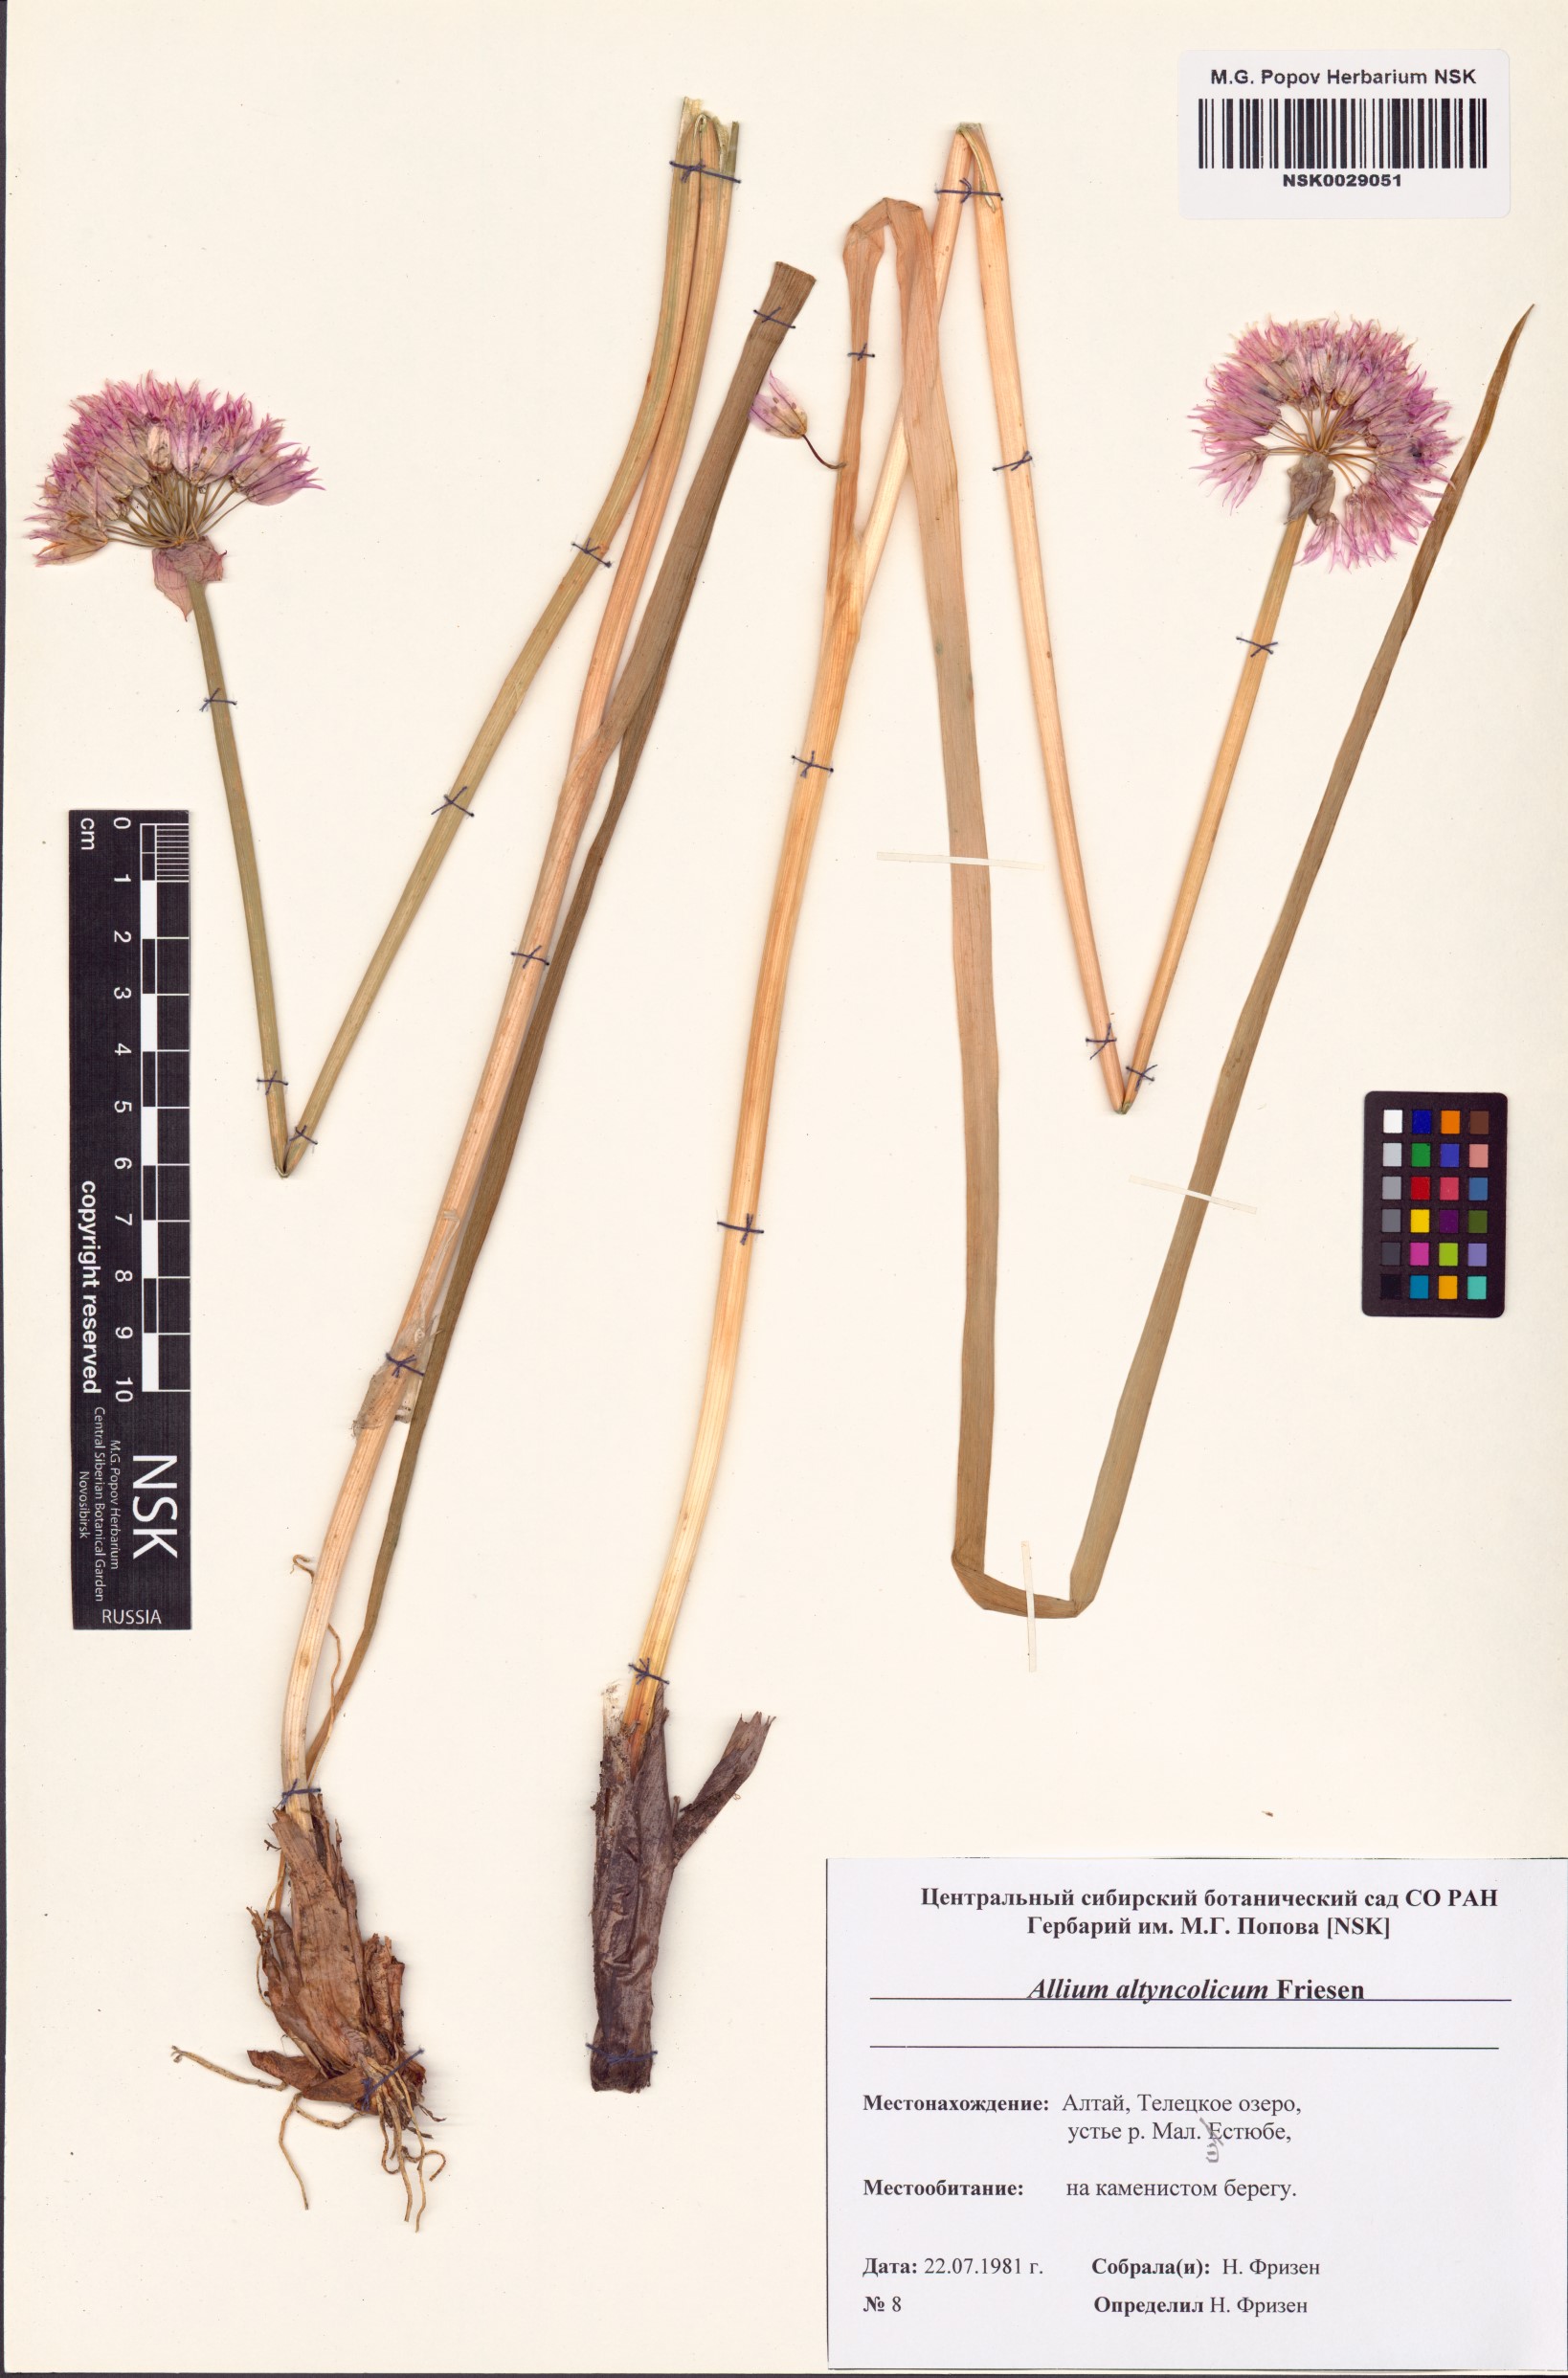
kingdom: Plantae
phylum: Tracheophyta
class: Liliopsida
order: Asparagales
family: Amaryllidaceae
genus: Allium
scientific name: Allium altyncolicum
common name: Altynkol chive
